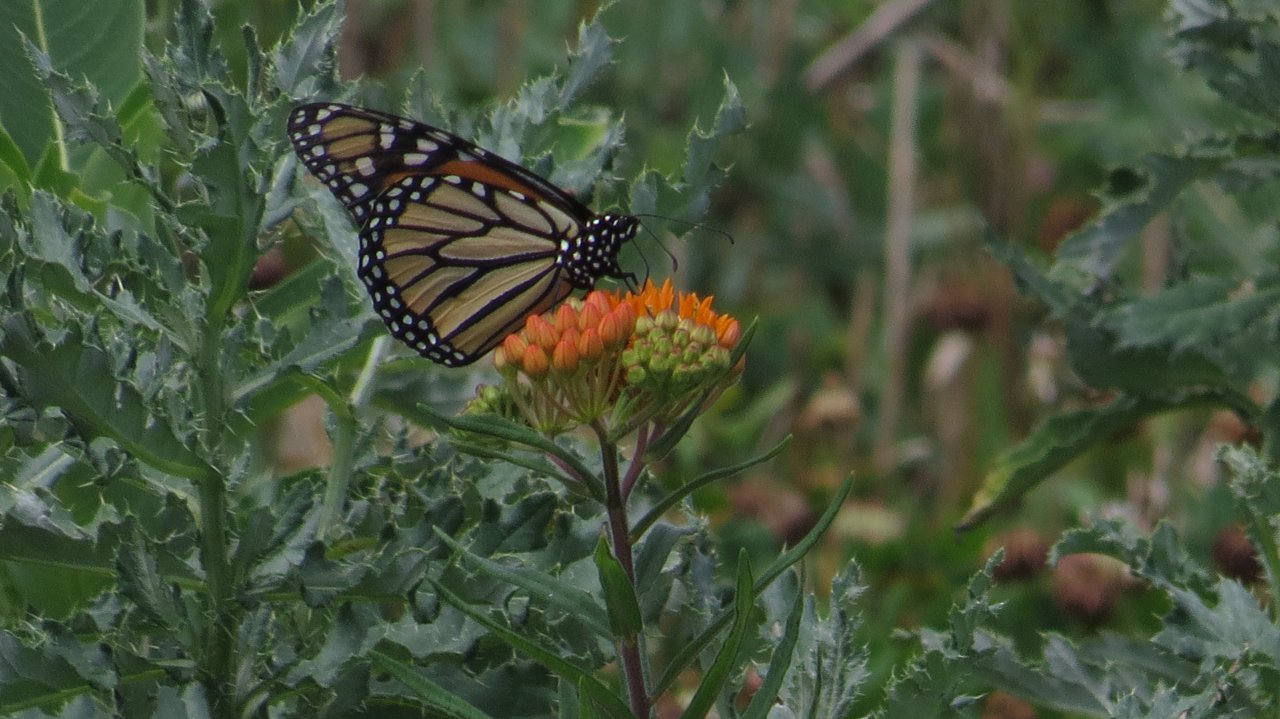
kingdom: Animalia
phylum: Arthropoda
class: Insecta
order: Lepidoptera
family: Nymphalidae
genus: Danaus
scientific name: Danaus plexippus
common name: Monarch
